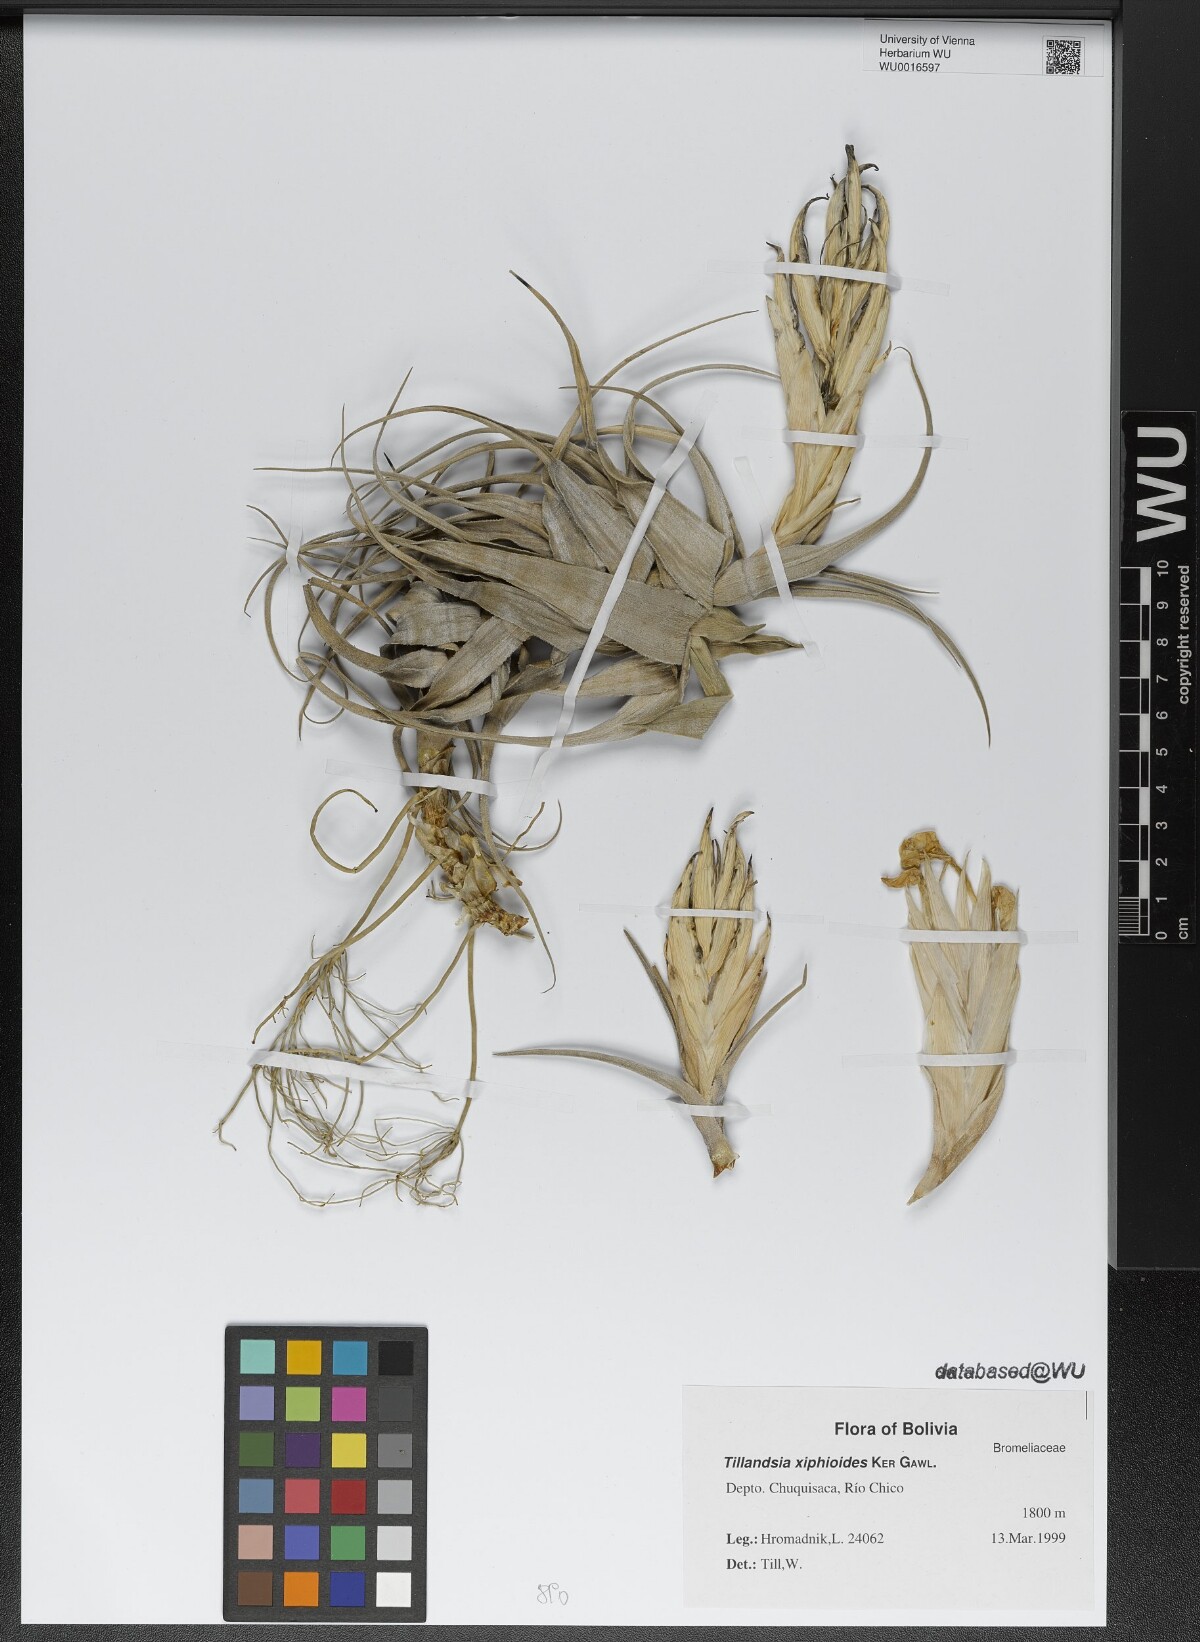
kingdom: Plantae
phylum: Tracheophyta
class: Liliopsida
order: Poales
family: Bromeliaceae
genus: Tillandsia
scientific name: Tillandsia xiphioides
